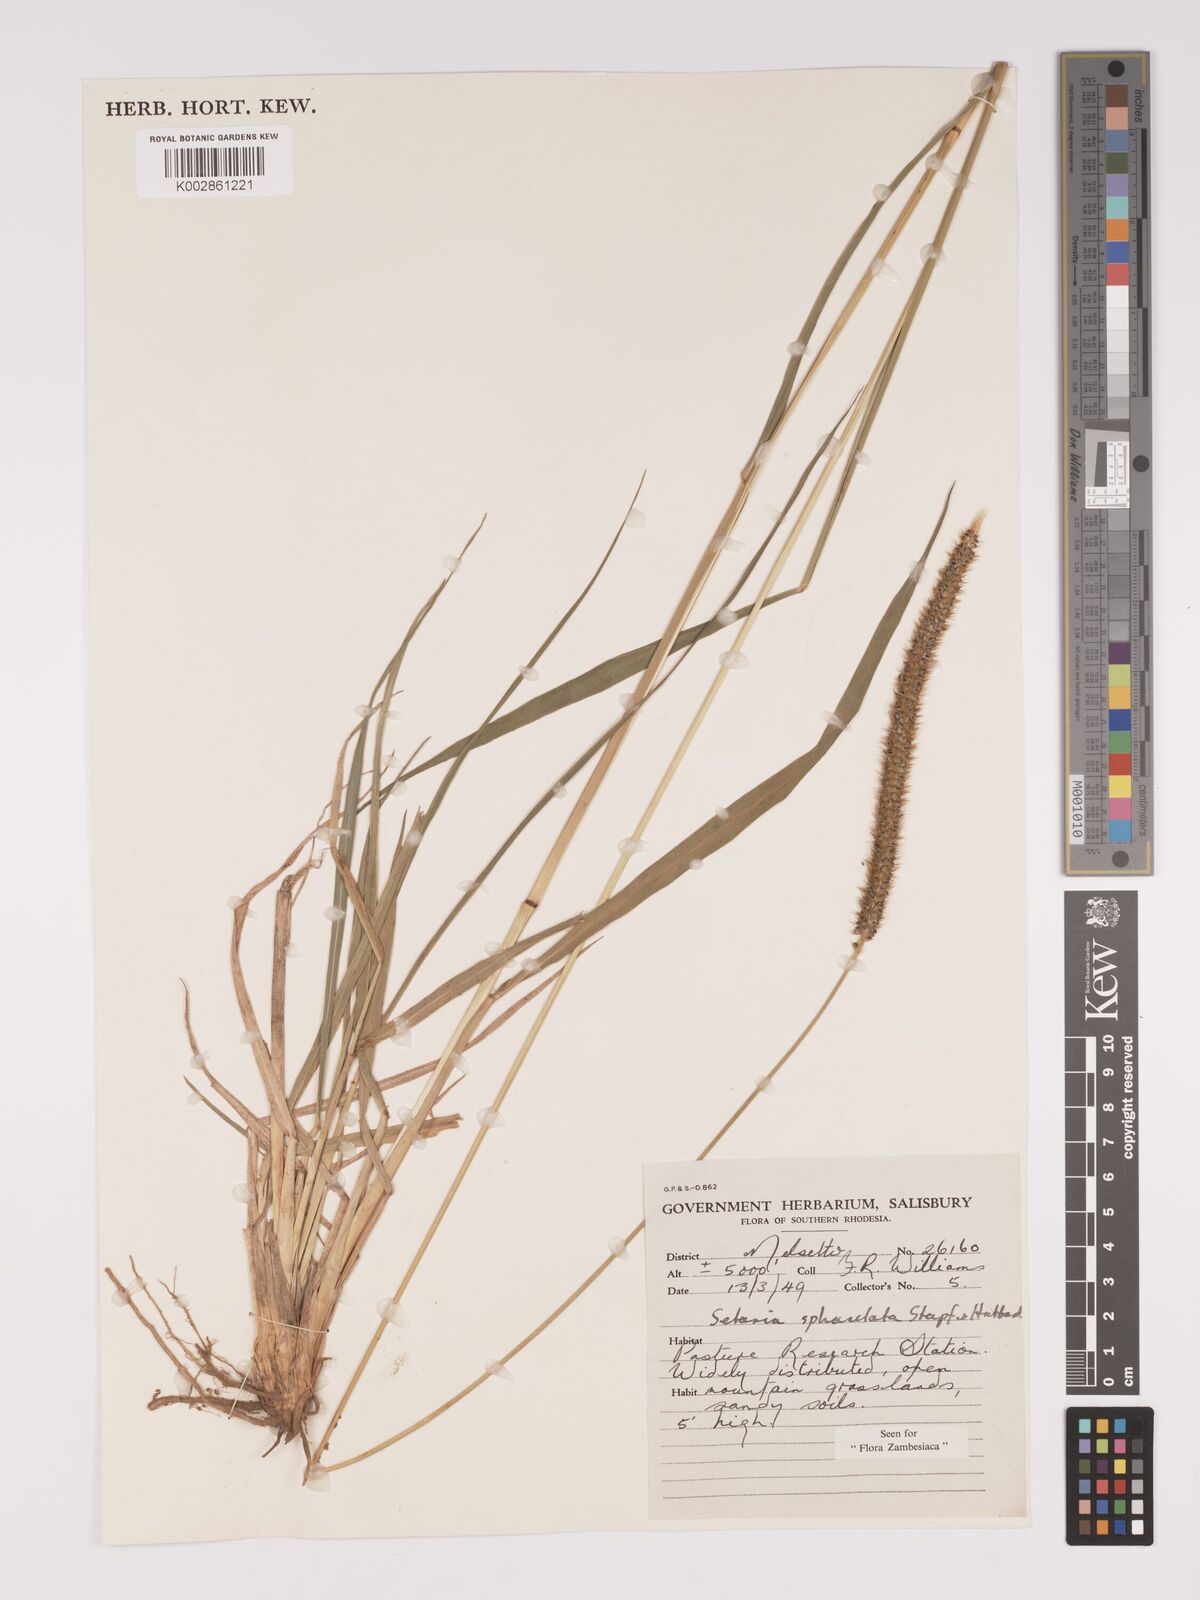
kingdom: Plantae
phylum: Tracheophyta
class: Liliopsida
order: Poales
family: Poaceae
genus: Setaria
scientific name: Setaria sphacelata
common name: African bristlegrass
